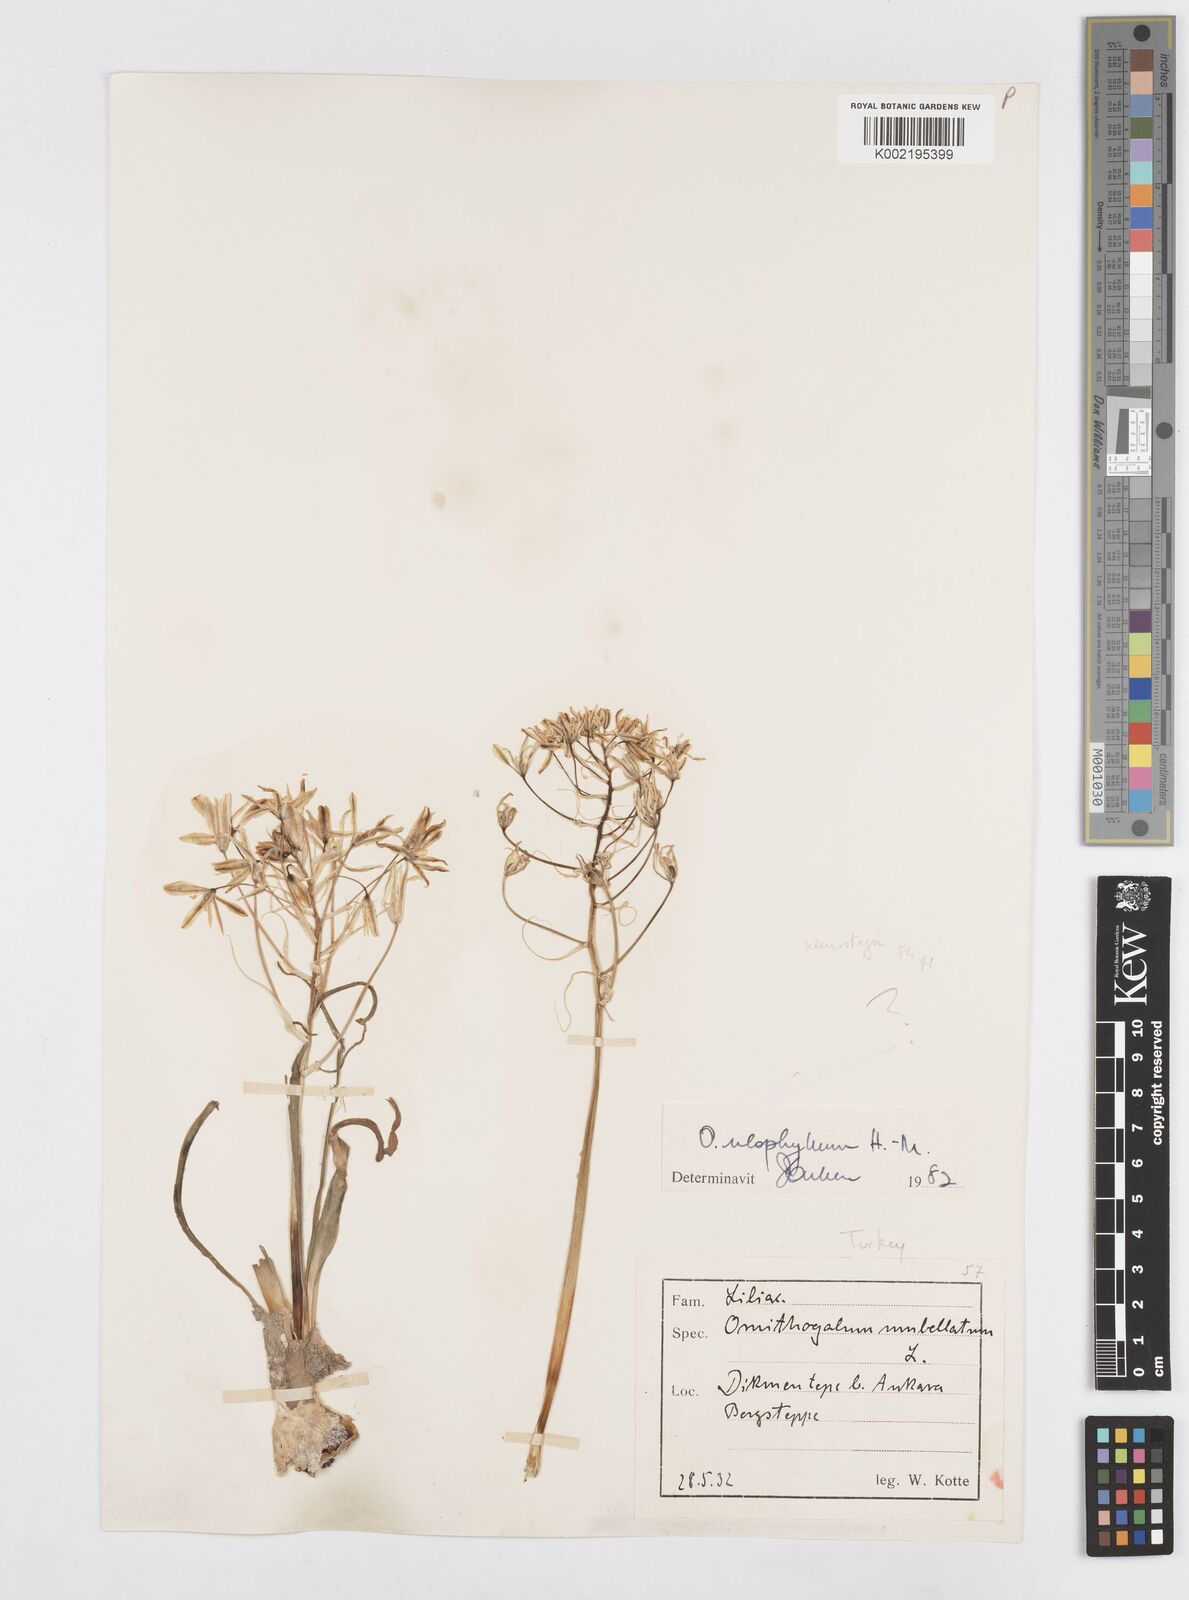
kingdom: Plantae
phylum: Tracheophyta
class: Liliopsida
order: Asparagales
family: Asparagaceae
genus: Ornithogalum
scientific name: Ornithogalum neurostegium
